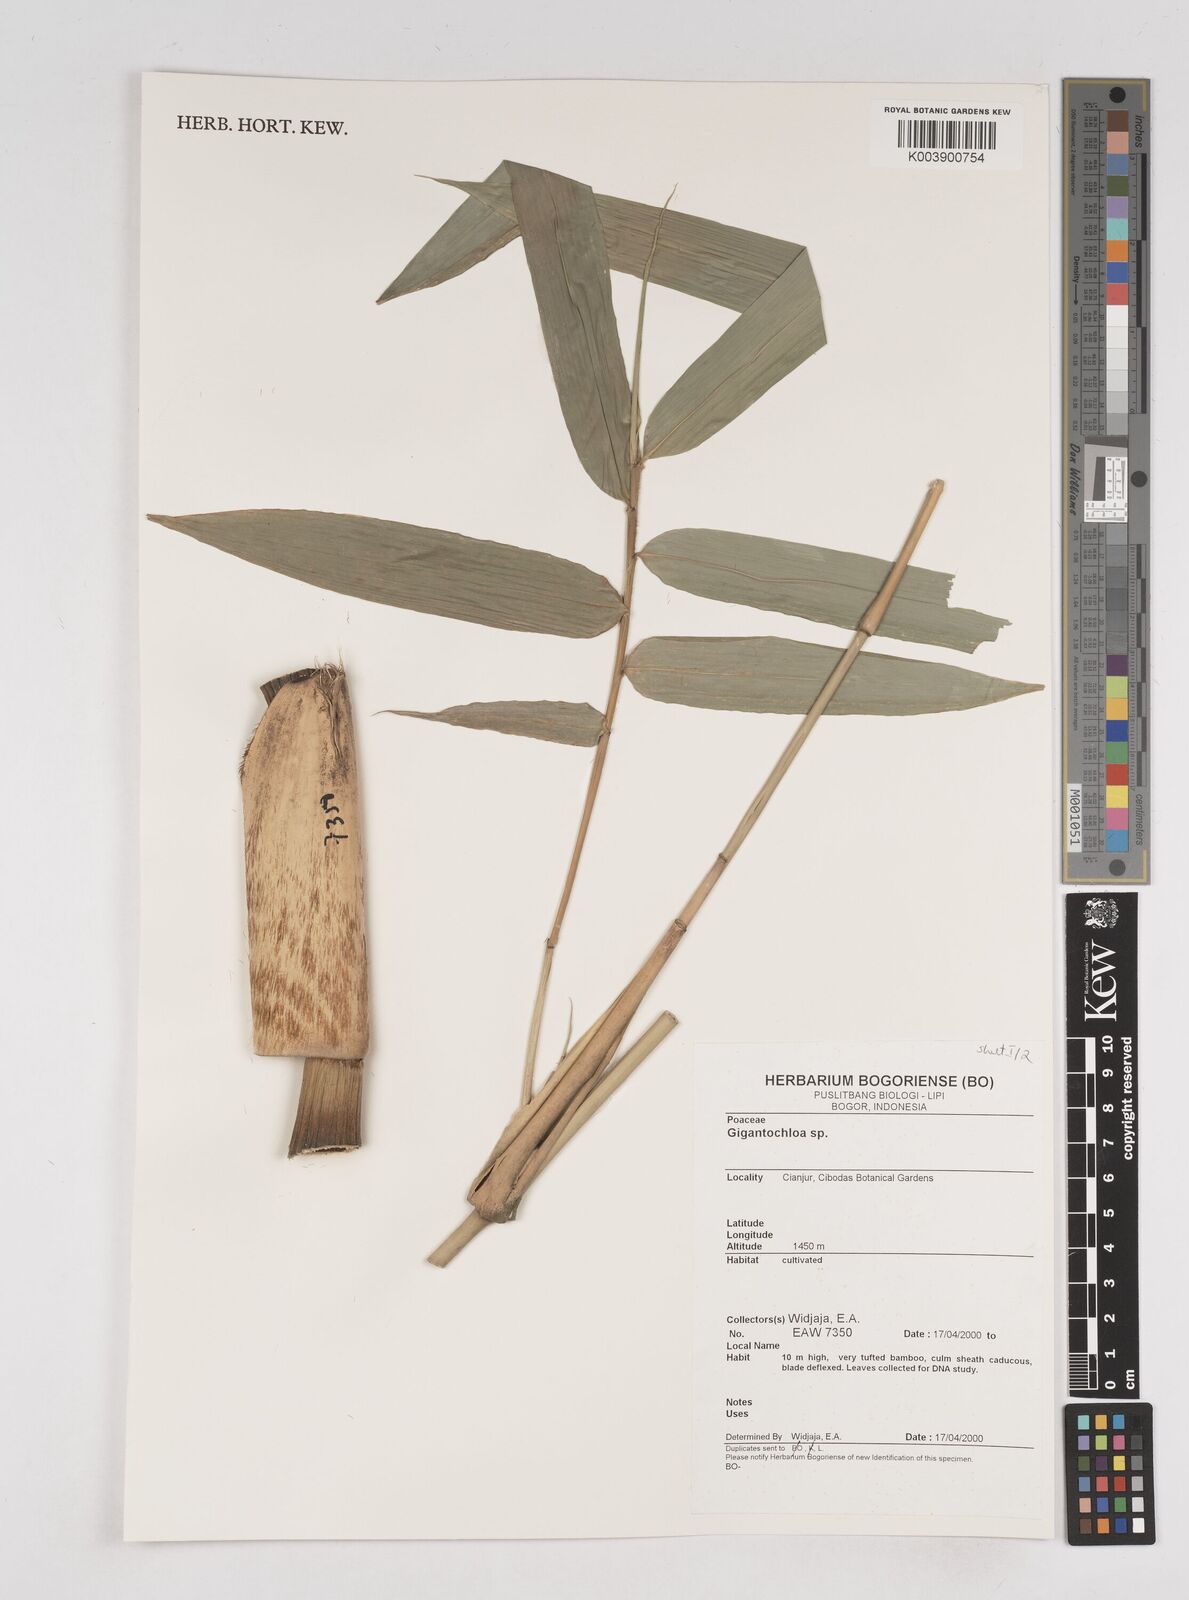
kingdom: Plantae
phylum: Tracheophyta
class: Liliopsida
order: Poales
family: Poaceae
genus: Gigantochloa
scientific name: Gigantochloa
